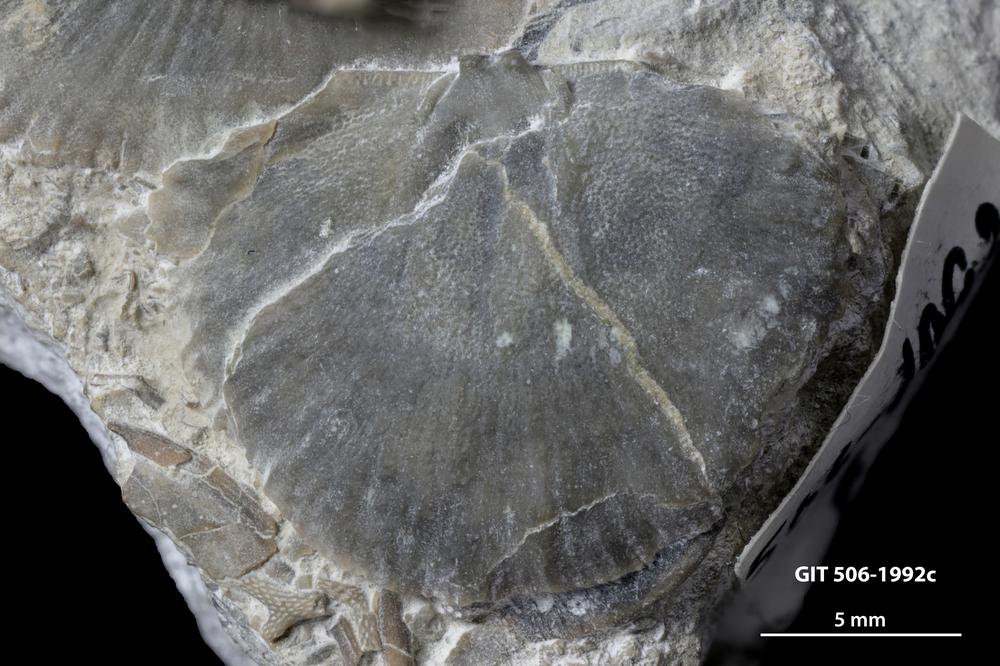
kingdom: Animalia
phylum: Brachiopoda
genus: Janiomya
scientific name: Janiomya Strophomena ornatella
